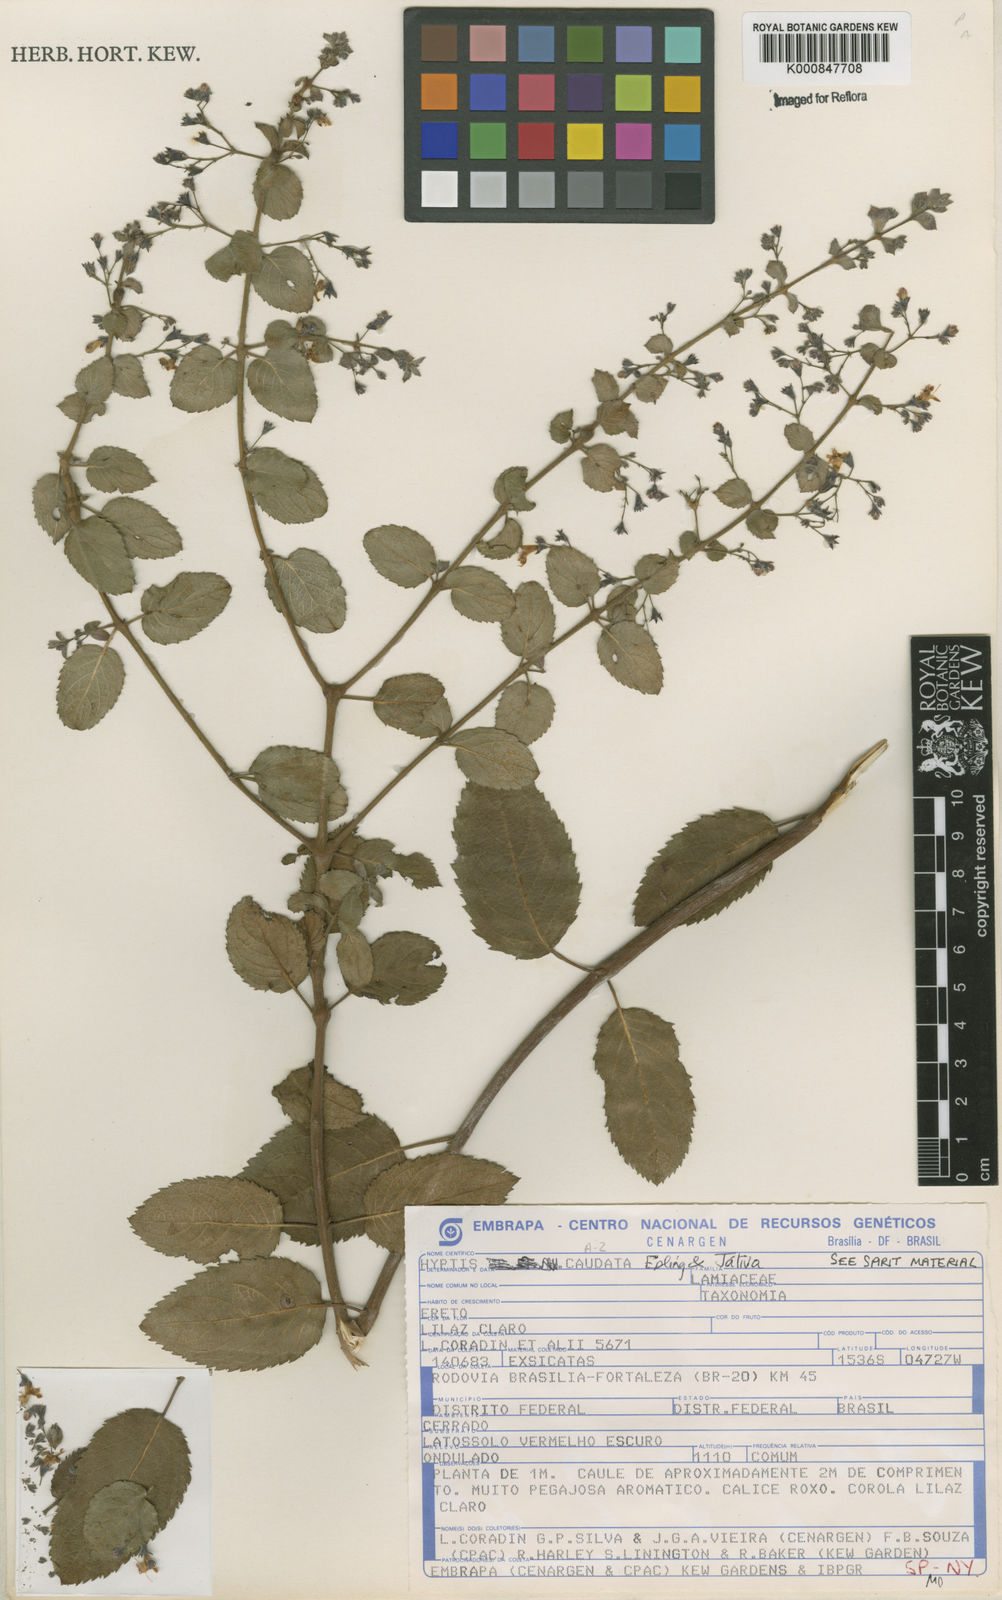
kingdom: Plantae
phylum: Tracheophyta
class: Magnoliopsida
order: Lamiales
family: Lamiaceae
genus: Hyptidendron
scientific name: Hyptidendron
